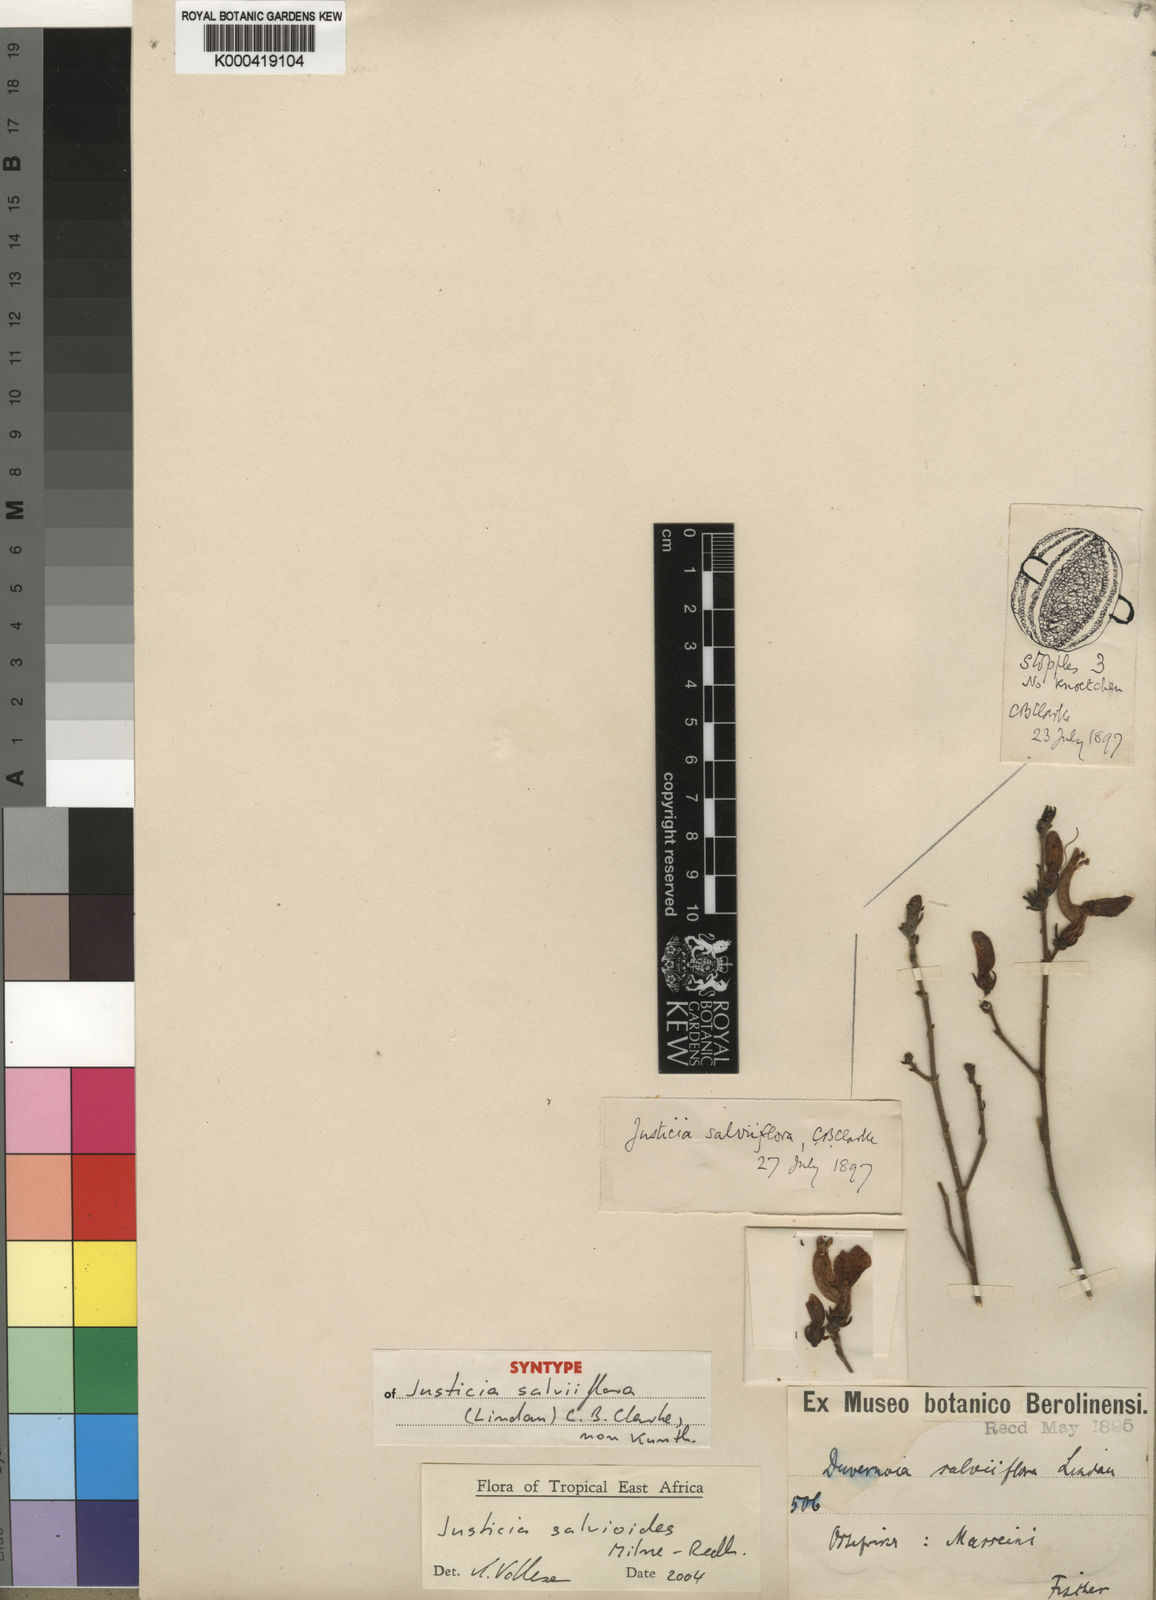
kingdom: Plantae
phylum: Tracheophyta
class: Magnoliopsida
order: Lamiales
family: Acanthaceae
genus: Justicia
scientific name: Justicia salvioides
